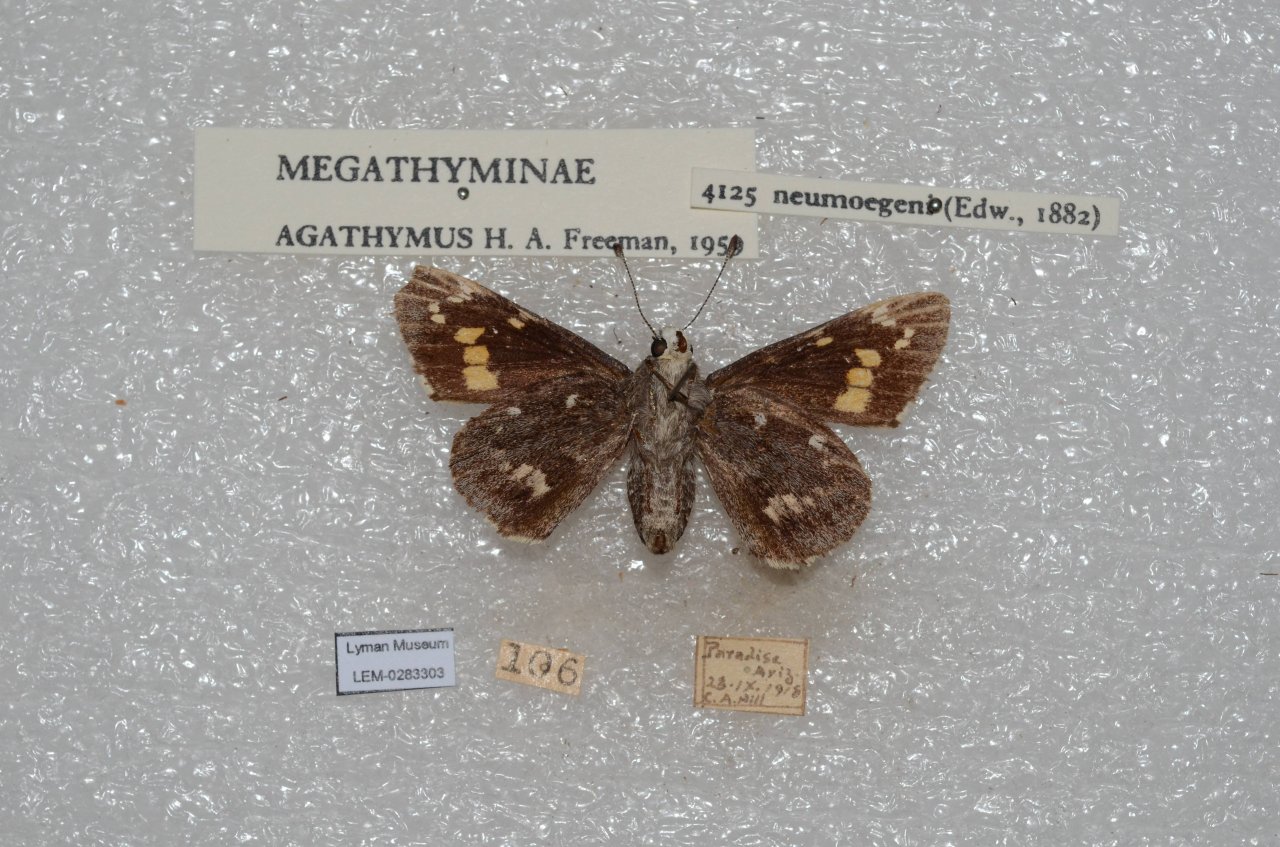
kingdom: Animalia
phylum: Arthropoda
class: Insecta
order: Lepidoptera
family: Hesperiidae
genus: Agathymus
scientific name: Agathymus neumoegeni
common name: Orange Giant-Skipper
